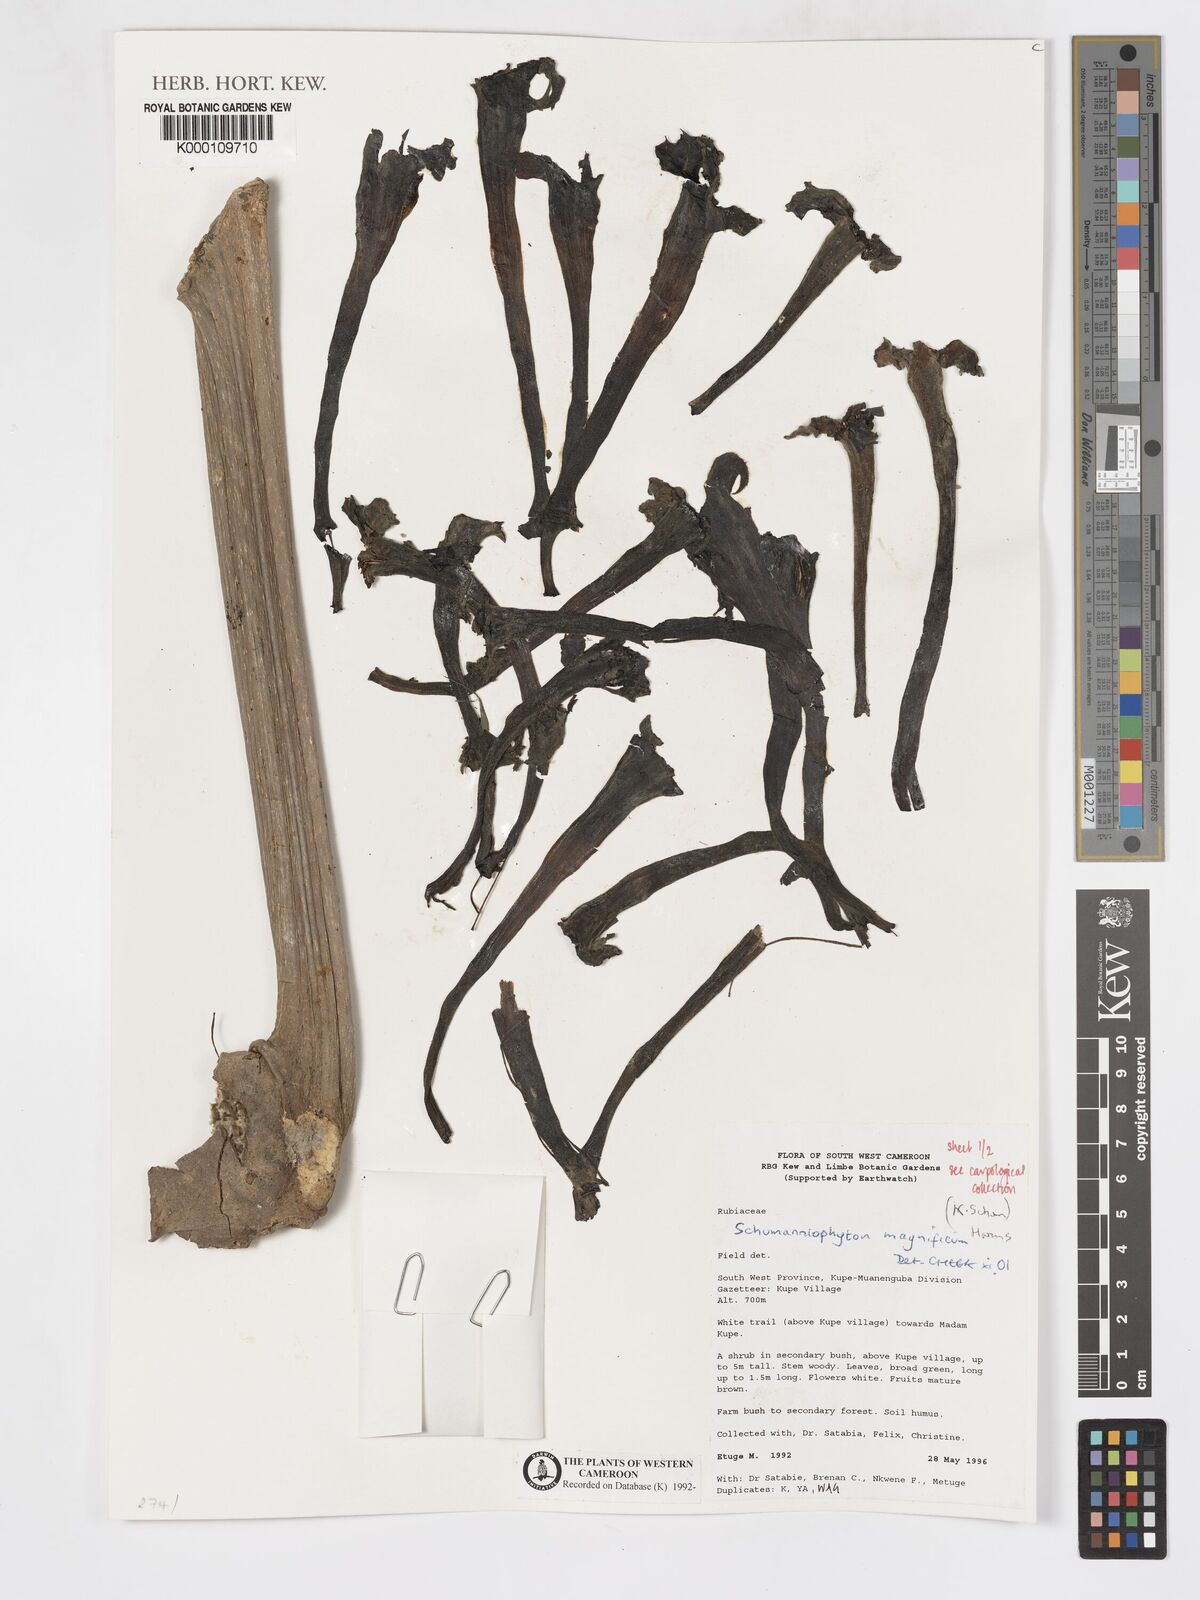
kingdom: Plantae
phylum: Tracheophyta
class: Magnoliopsida
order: Gentianales
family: Rubiaceae
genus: Schumanniophyton
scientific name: Schumanniophyton magnificum
